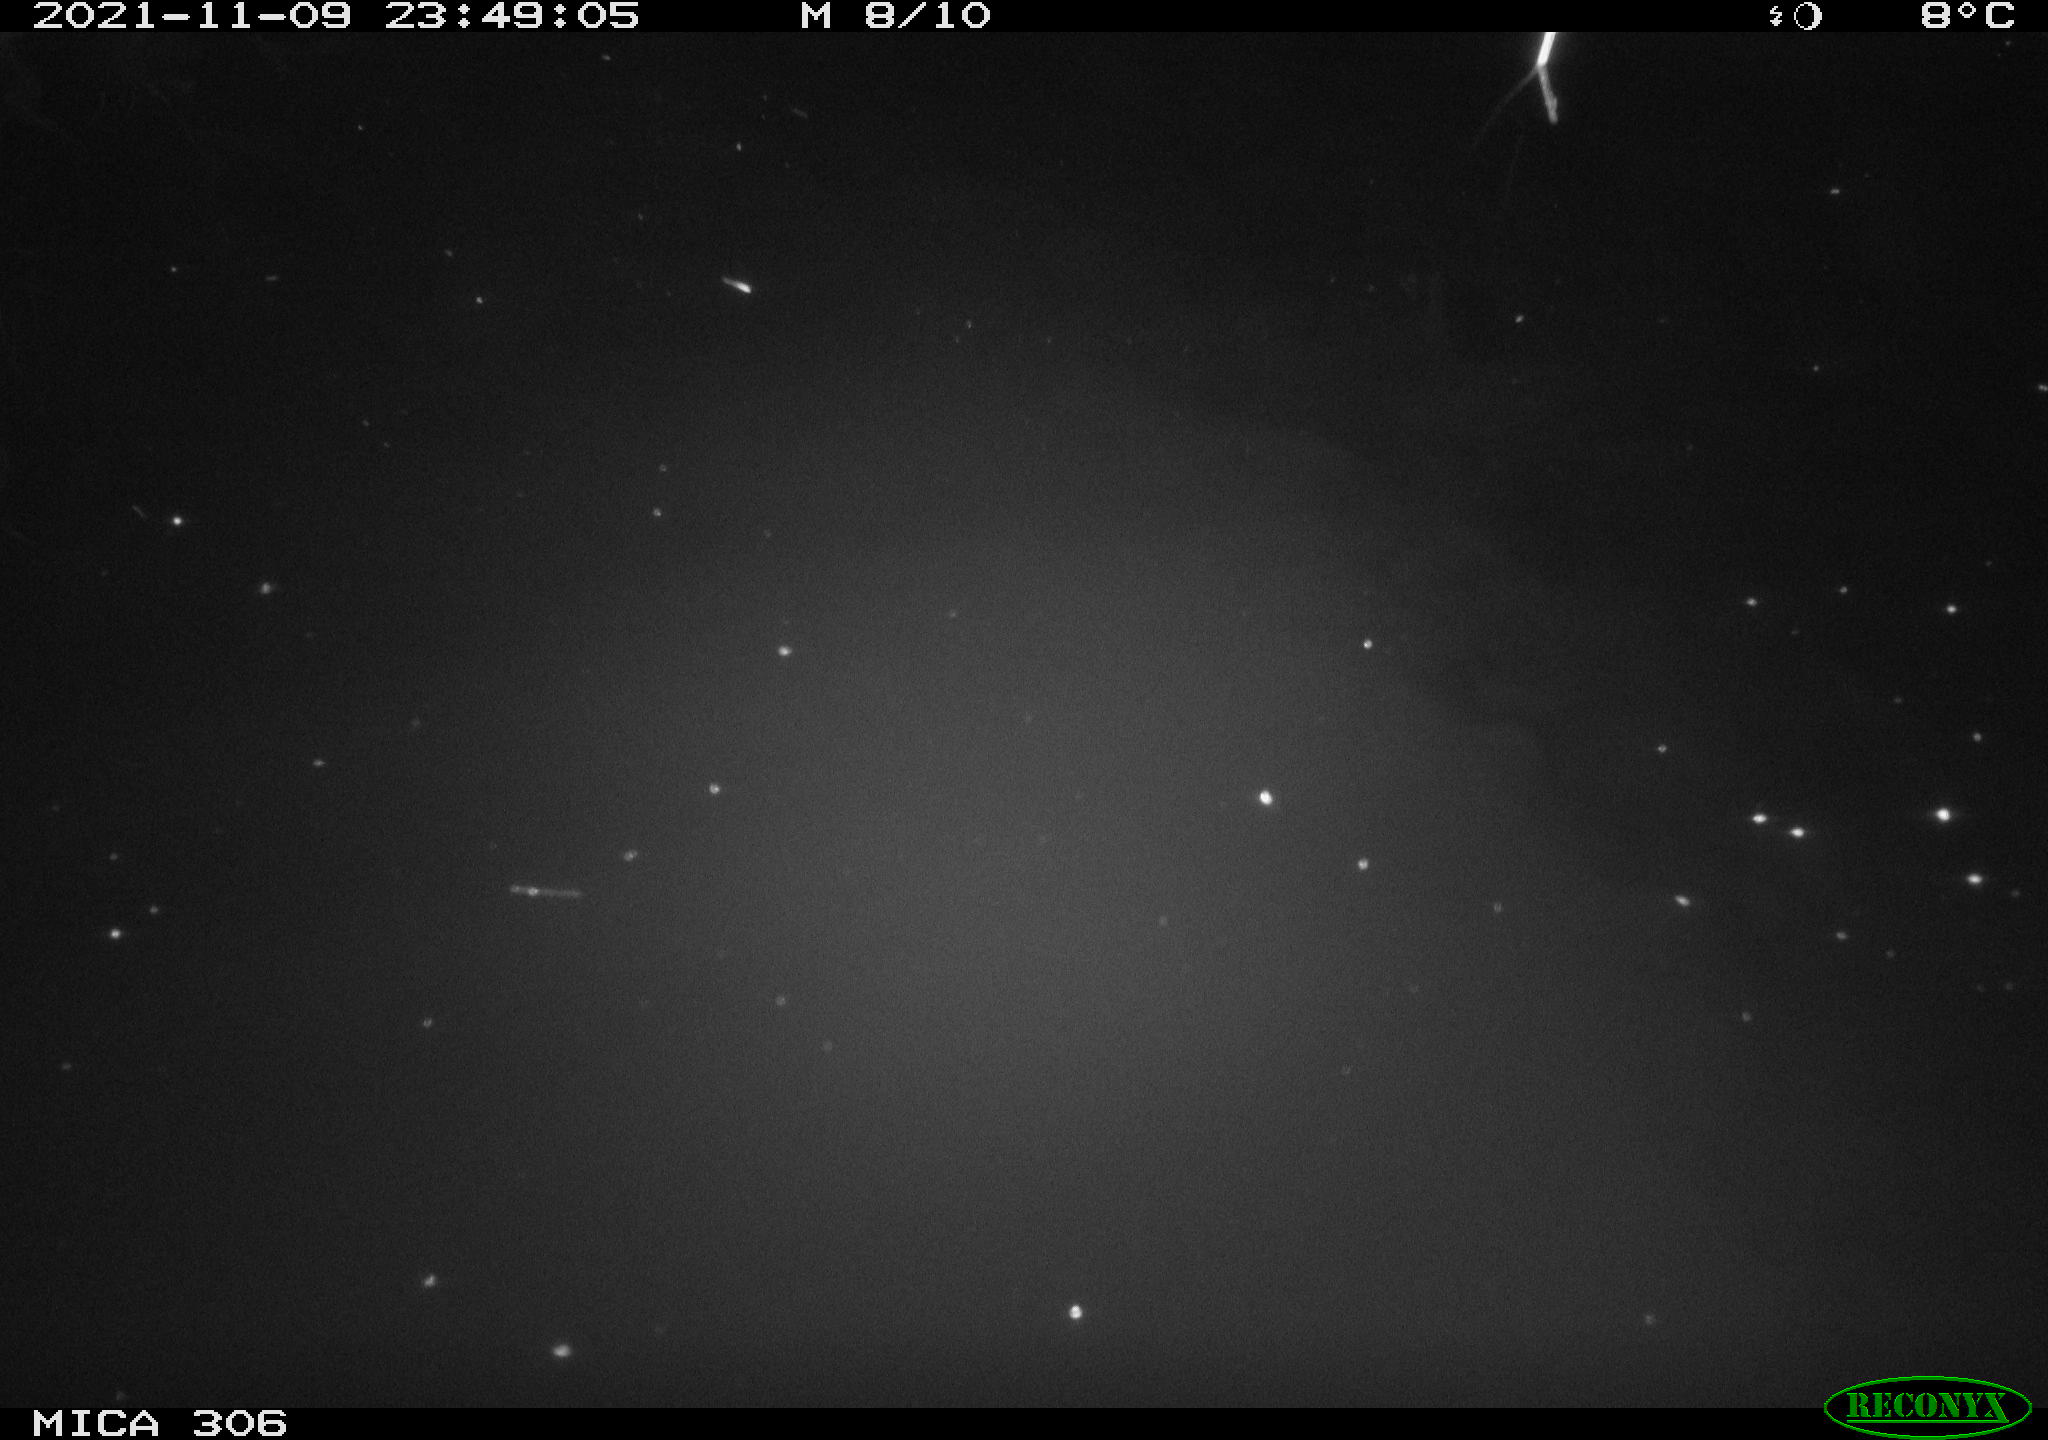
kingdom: Animalia
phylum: Chordata
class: Mammalia
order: Rodentia
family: Muridae
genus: Rattus
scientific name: Rattus norvegicus
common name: Brown rat
